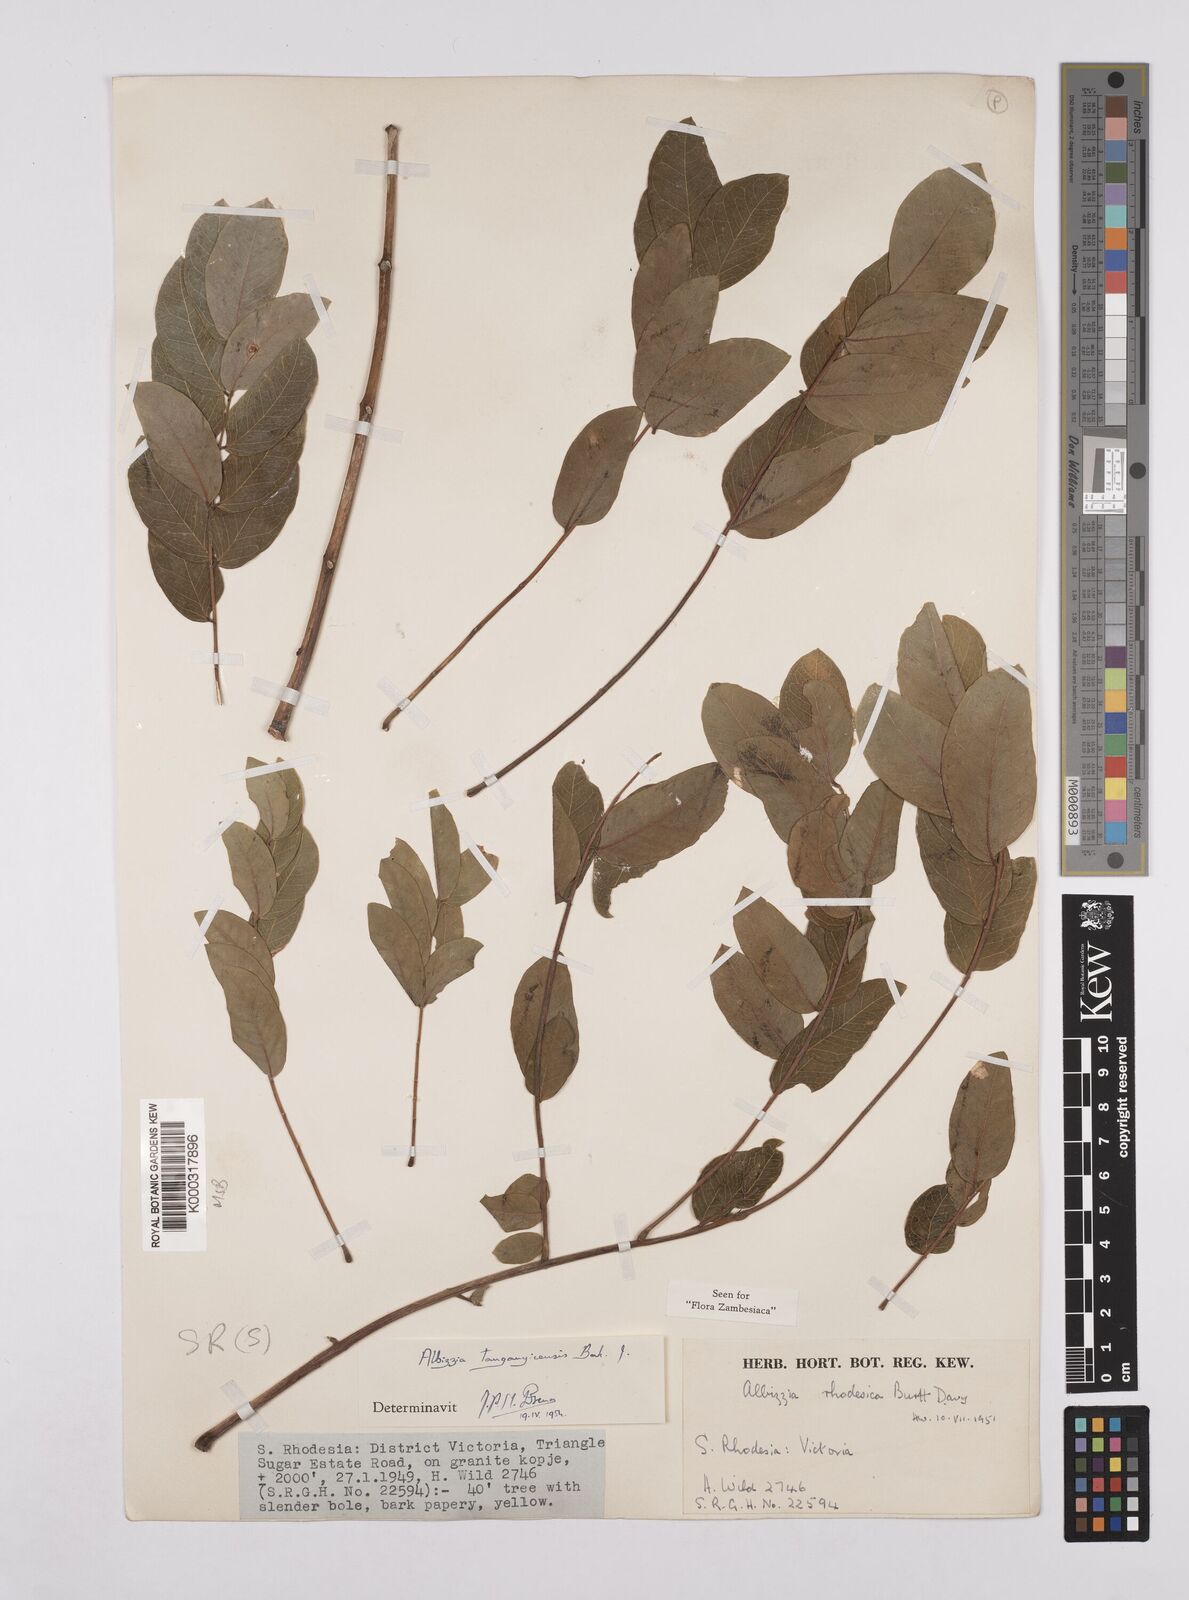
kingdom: Plantae
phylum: Tracheophyta
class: Magnoliopsida
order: Fabales
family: Fabaceae
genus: Albizia
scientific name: Albizia tanganyicensis
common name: Paperbark false thorn
